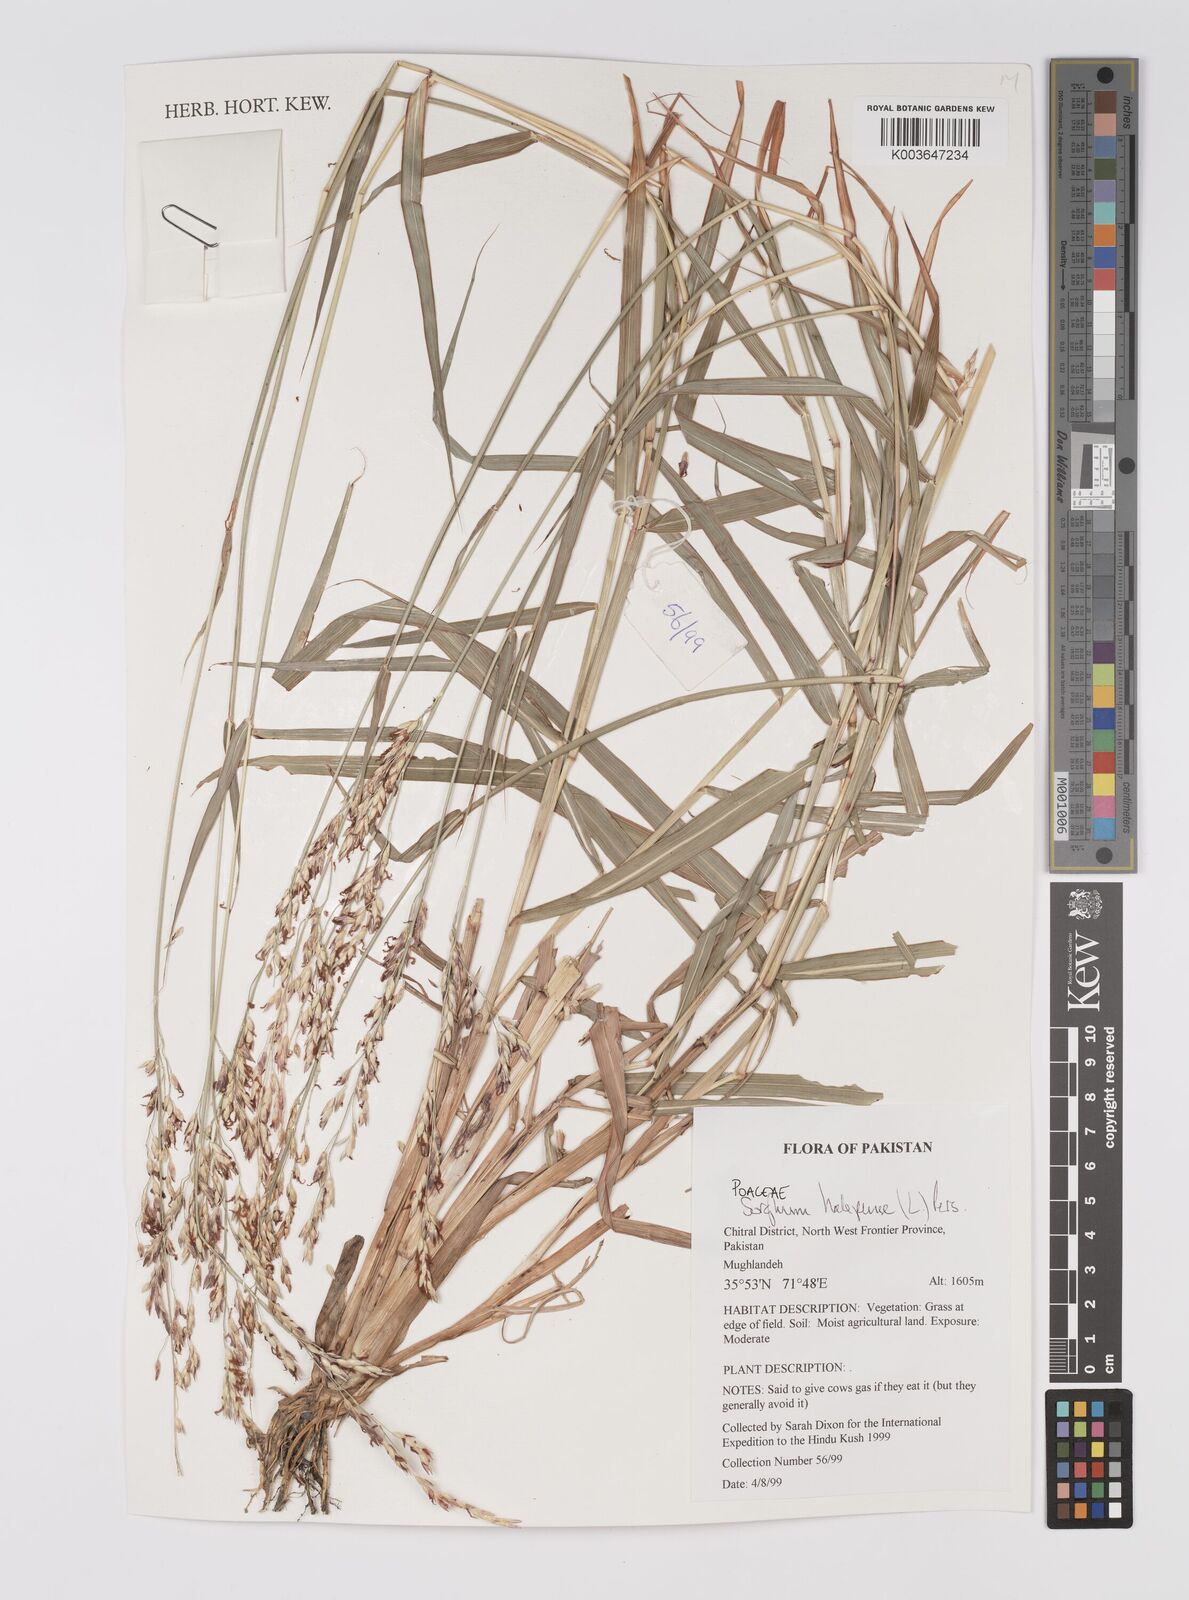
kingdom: Plantae
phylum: Tracheophyta
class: Liliopsida
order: Poales
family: Poaceae
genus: Sorghum
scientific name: Sorghum halepense
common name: Johnson-grass
